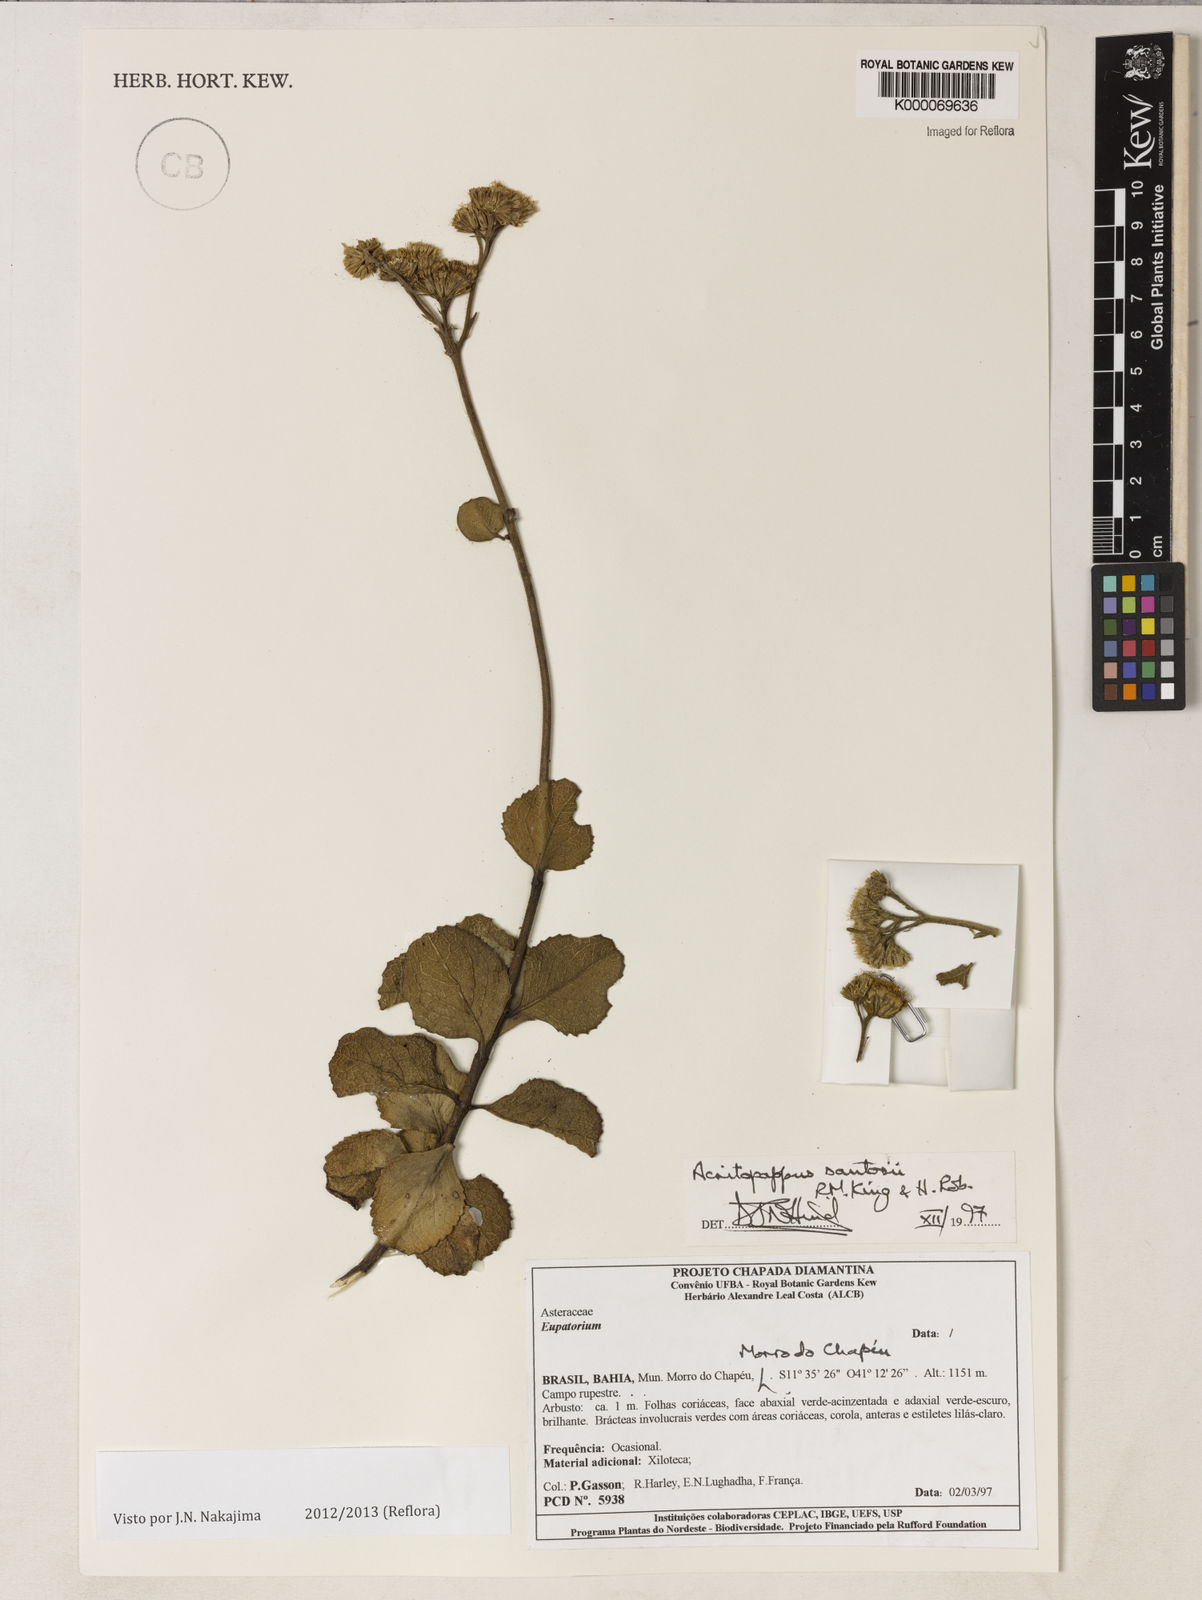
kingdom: Plantae
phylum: Tracheophyta
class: Magnoliopsida
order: Asterales
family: Asteraceae
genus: Acritopappus
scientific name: Acritopappus santosii
